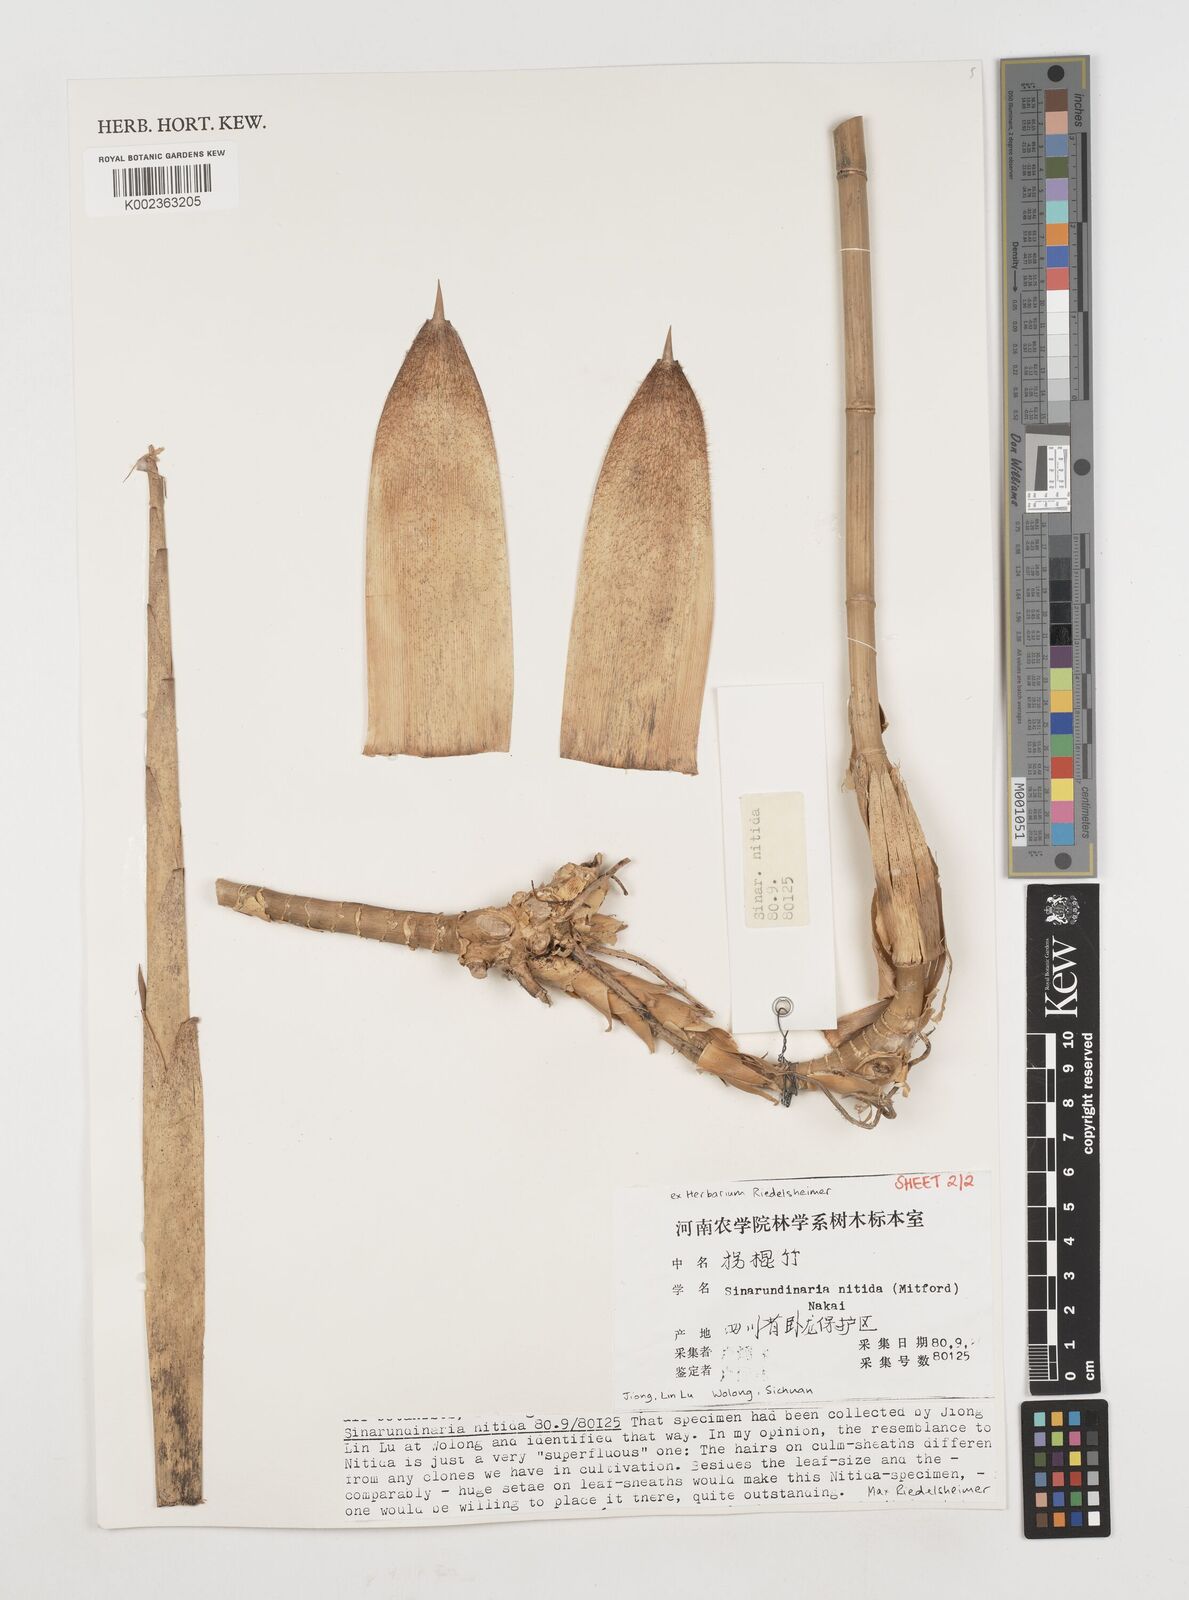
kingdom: Plantae
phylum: Tracheophyta
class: Liliopsida
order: Poales
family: Poaceae
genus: Fargesia
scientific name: Fargesia nitida ex
